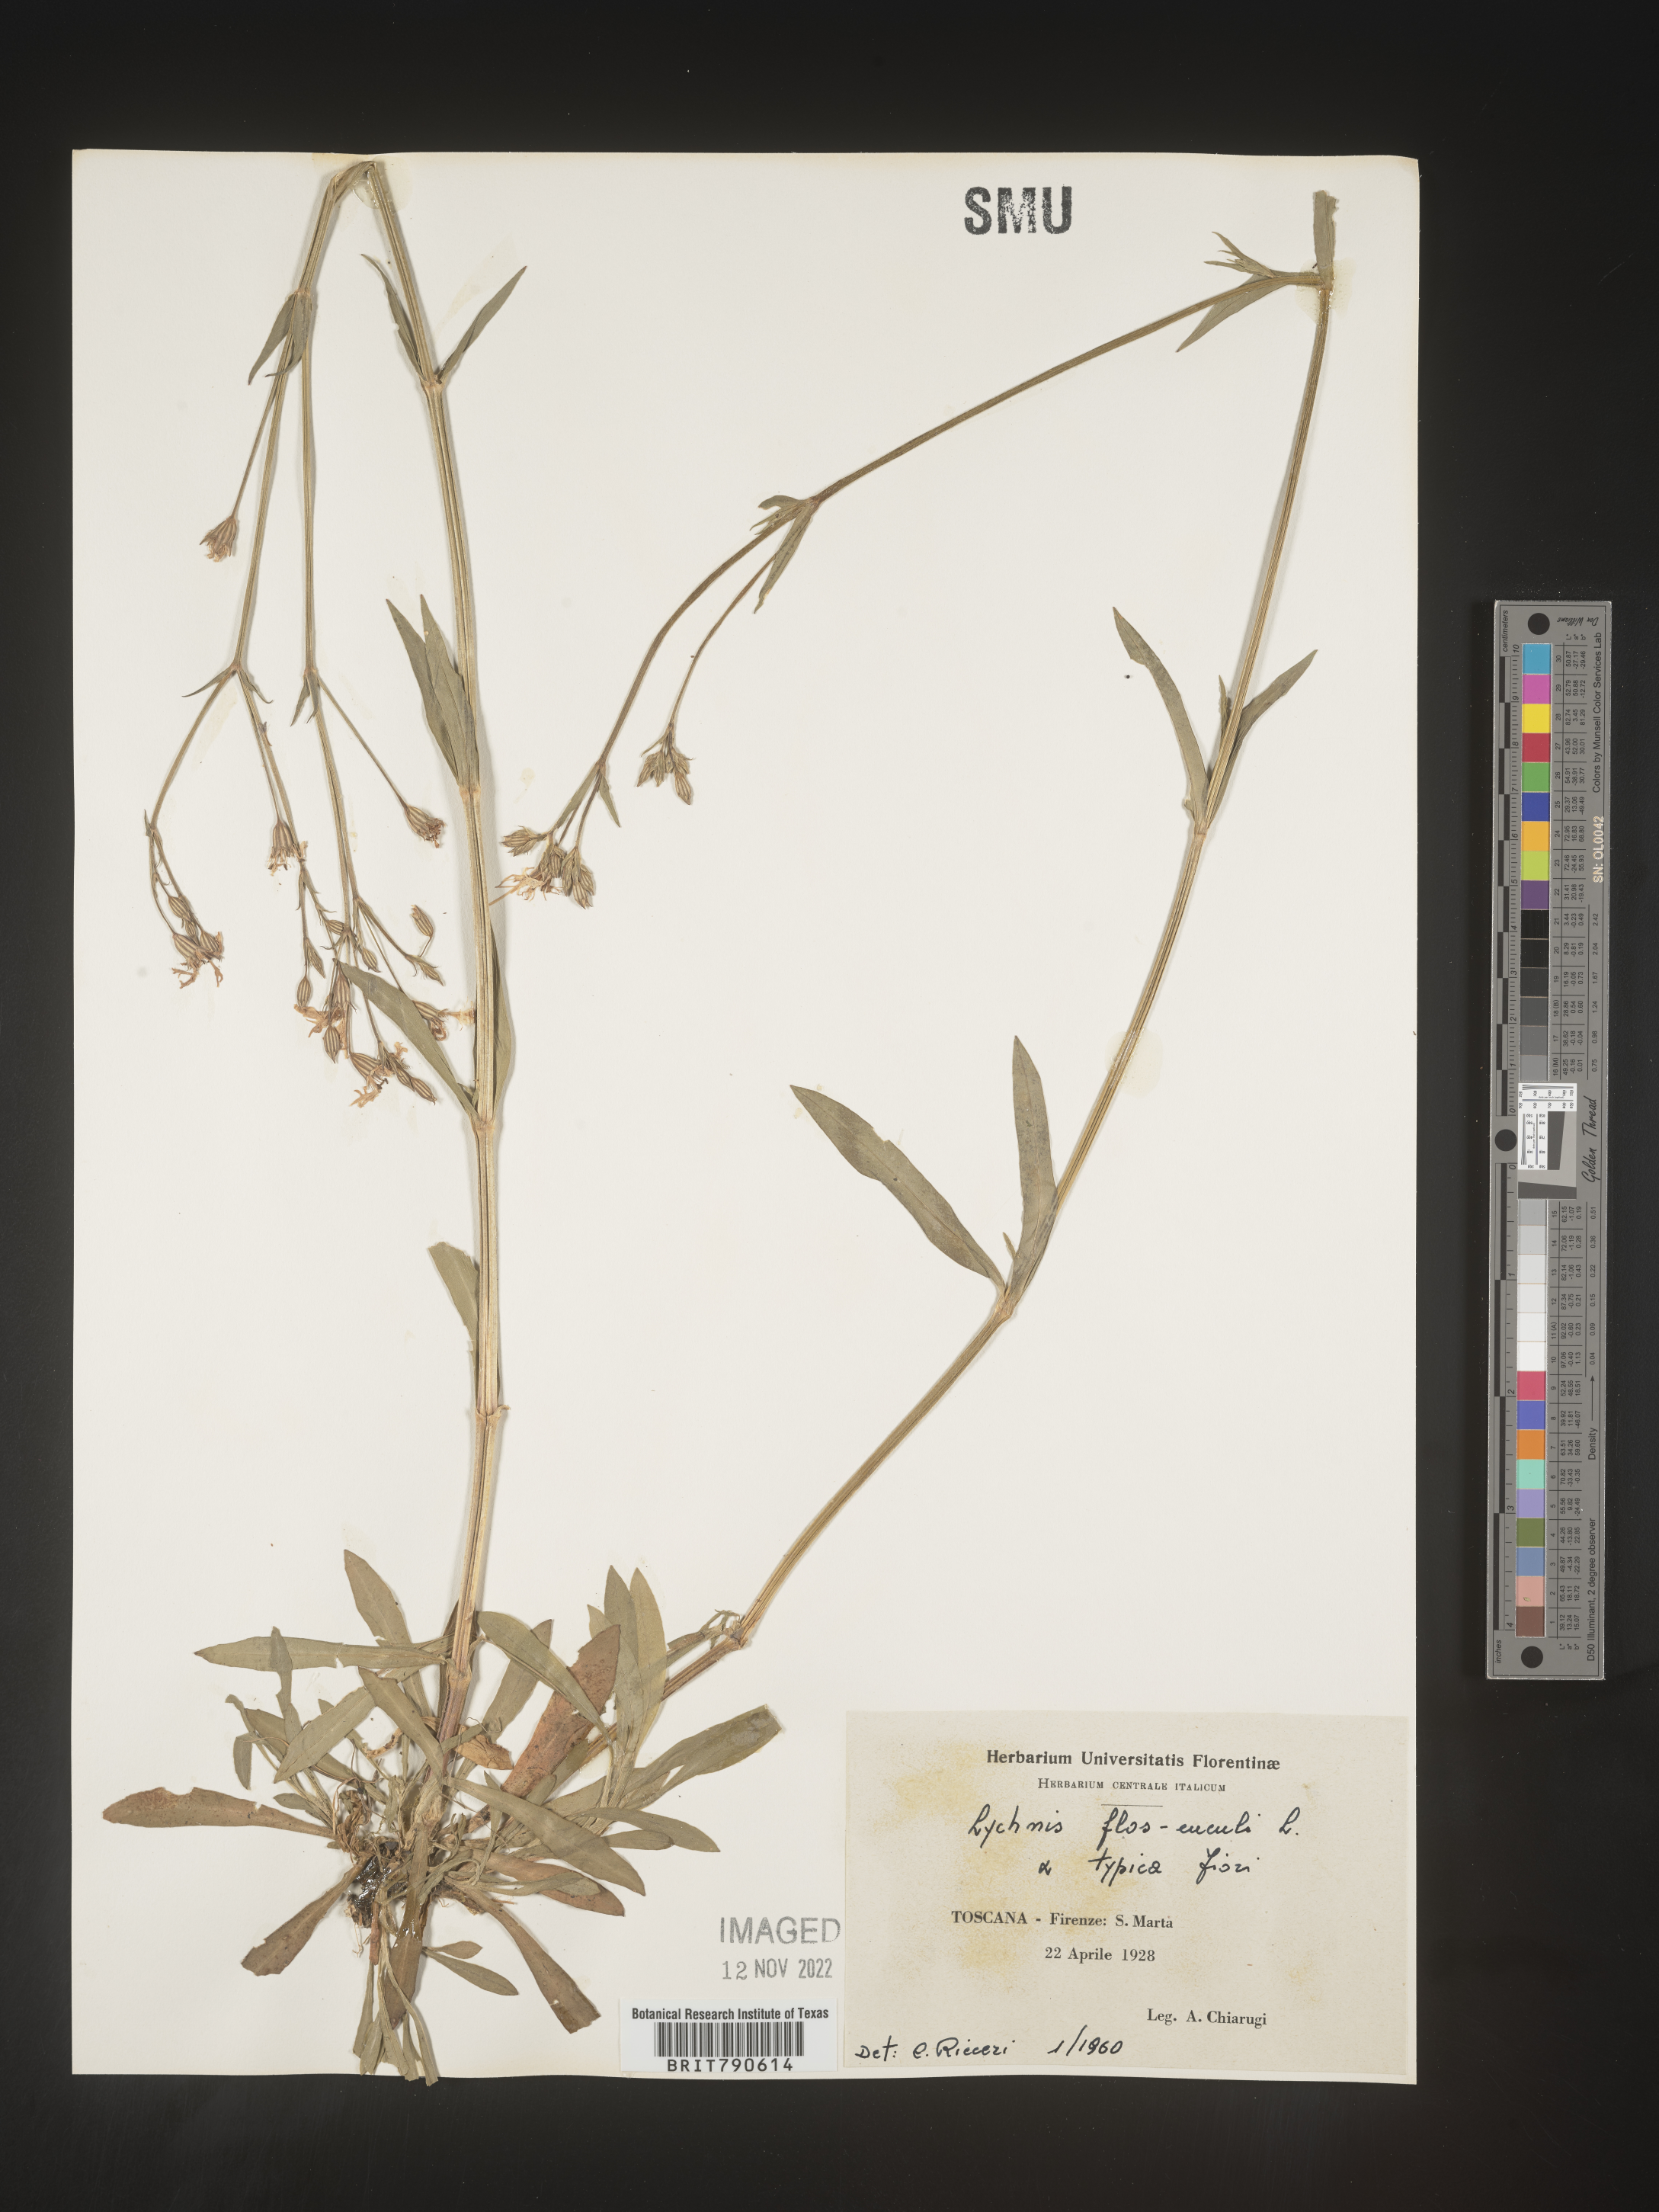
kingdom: Plantae
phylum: Tracheophyta
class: Magnoliopsida
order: Caryophyllales
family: Caryophyllaceae
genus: Silene
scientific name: Silene
